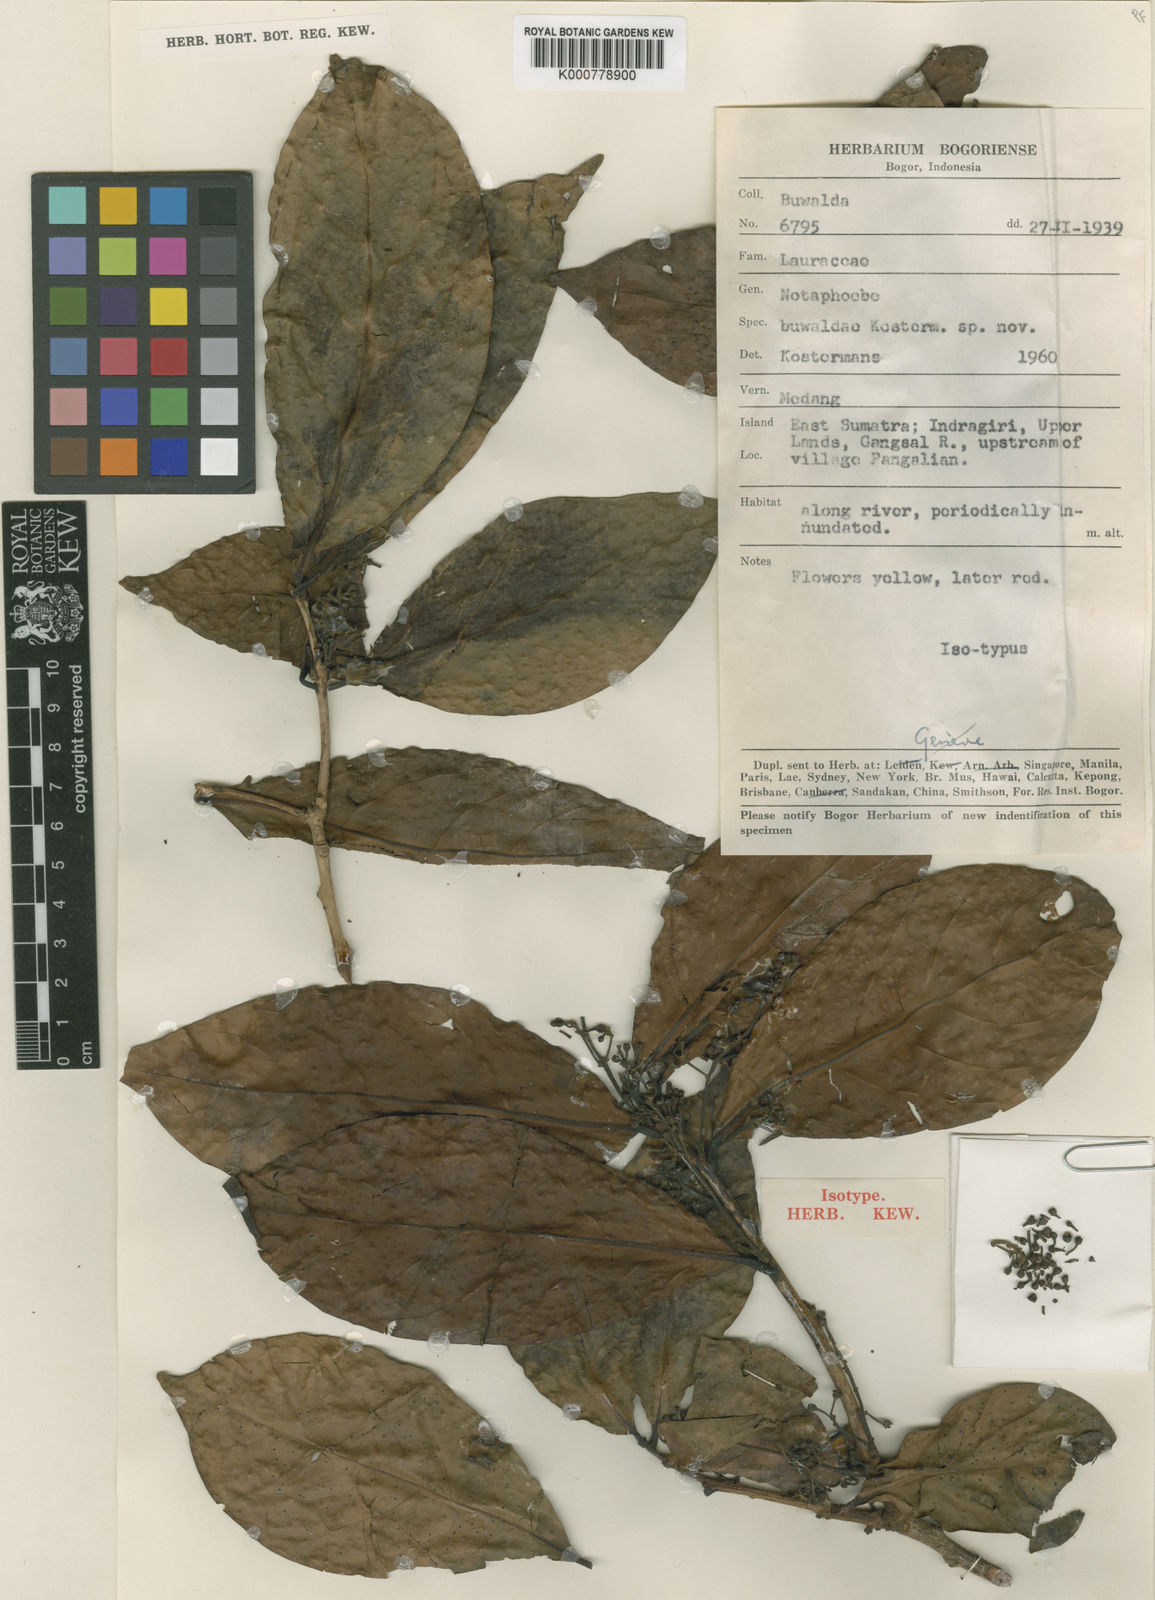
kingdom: Plantae
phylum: Tracheophyta
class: Magnoliopsida
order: Laurales
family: Lauraceae
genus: Nothaphoebe
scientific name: Nothaphoebe
